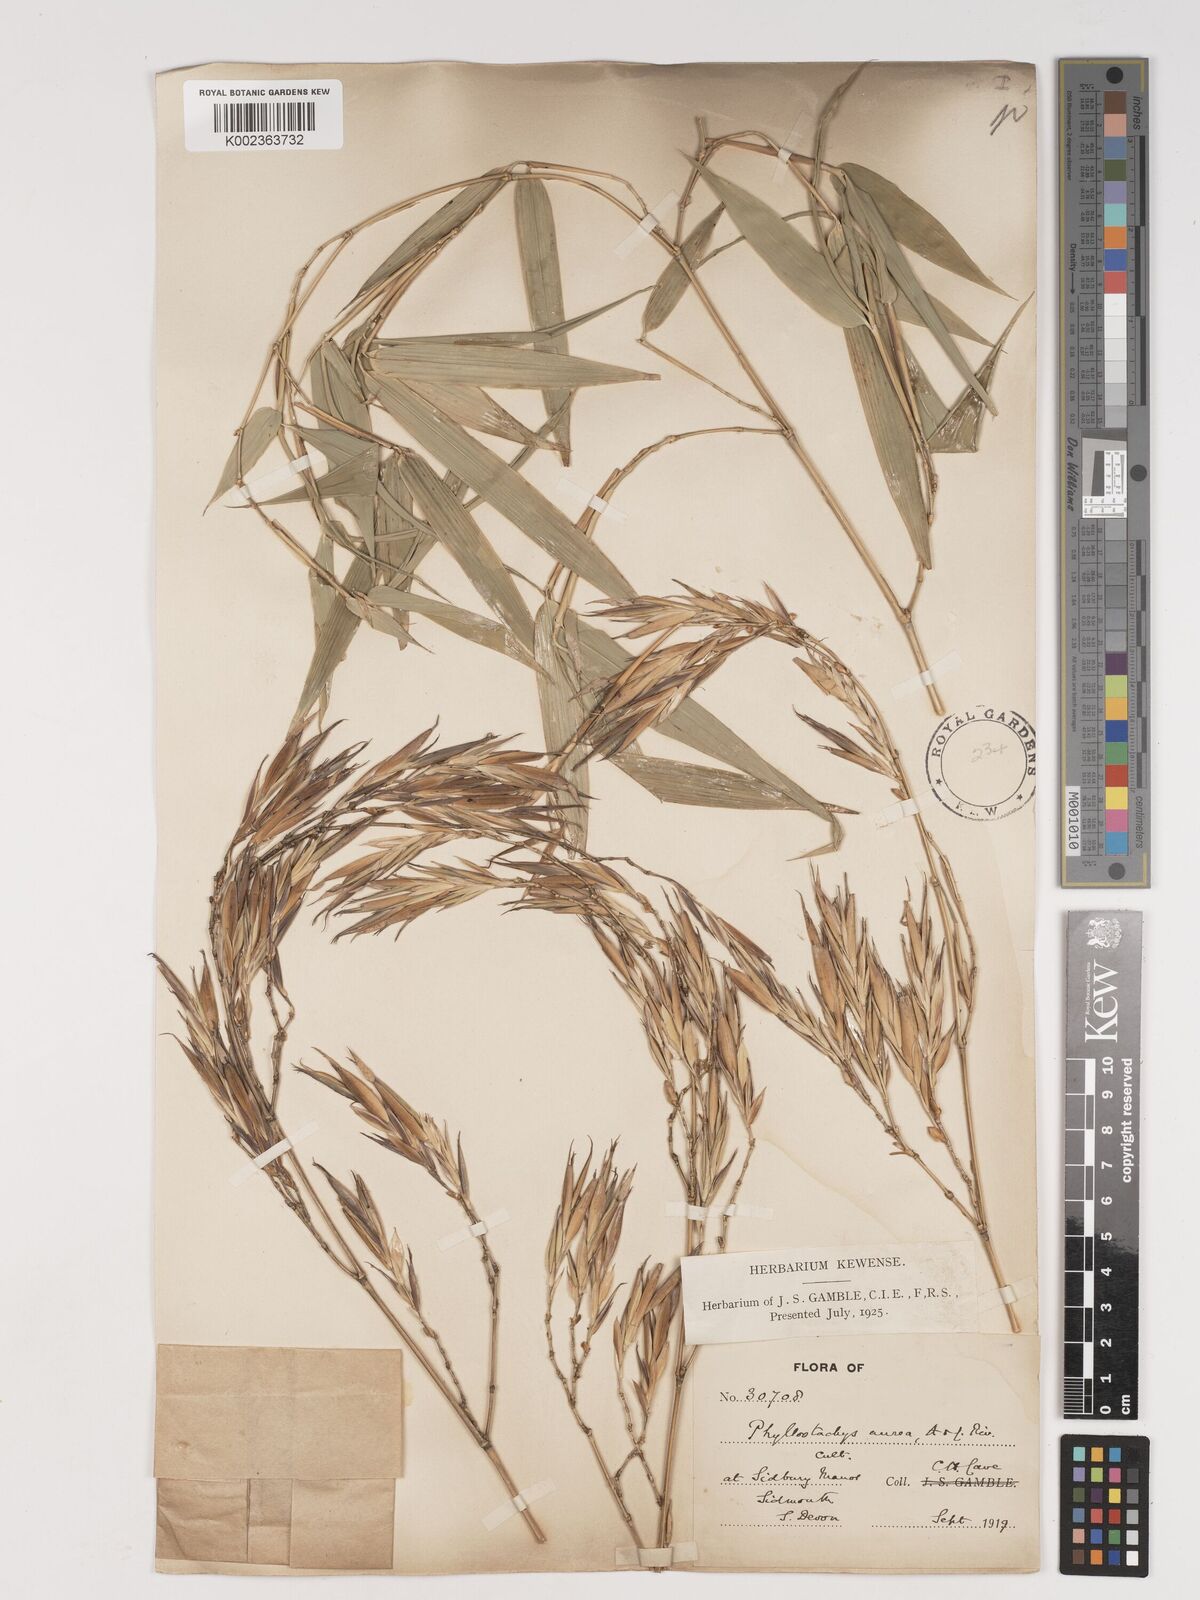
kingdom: Plantae
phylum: Tracheophyta
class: Liliopsida
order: Poales
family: Poaceae
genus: Phyllostachys
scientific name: Phyllostachys aurea
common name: Golden bamboo
